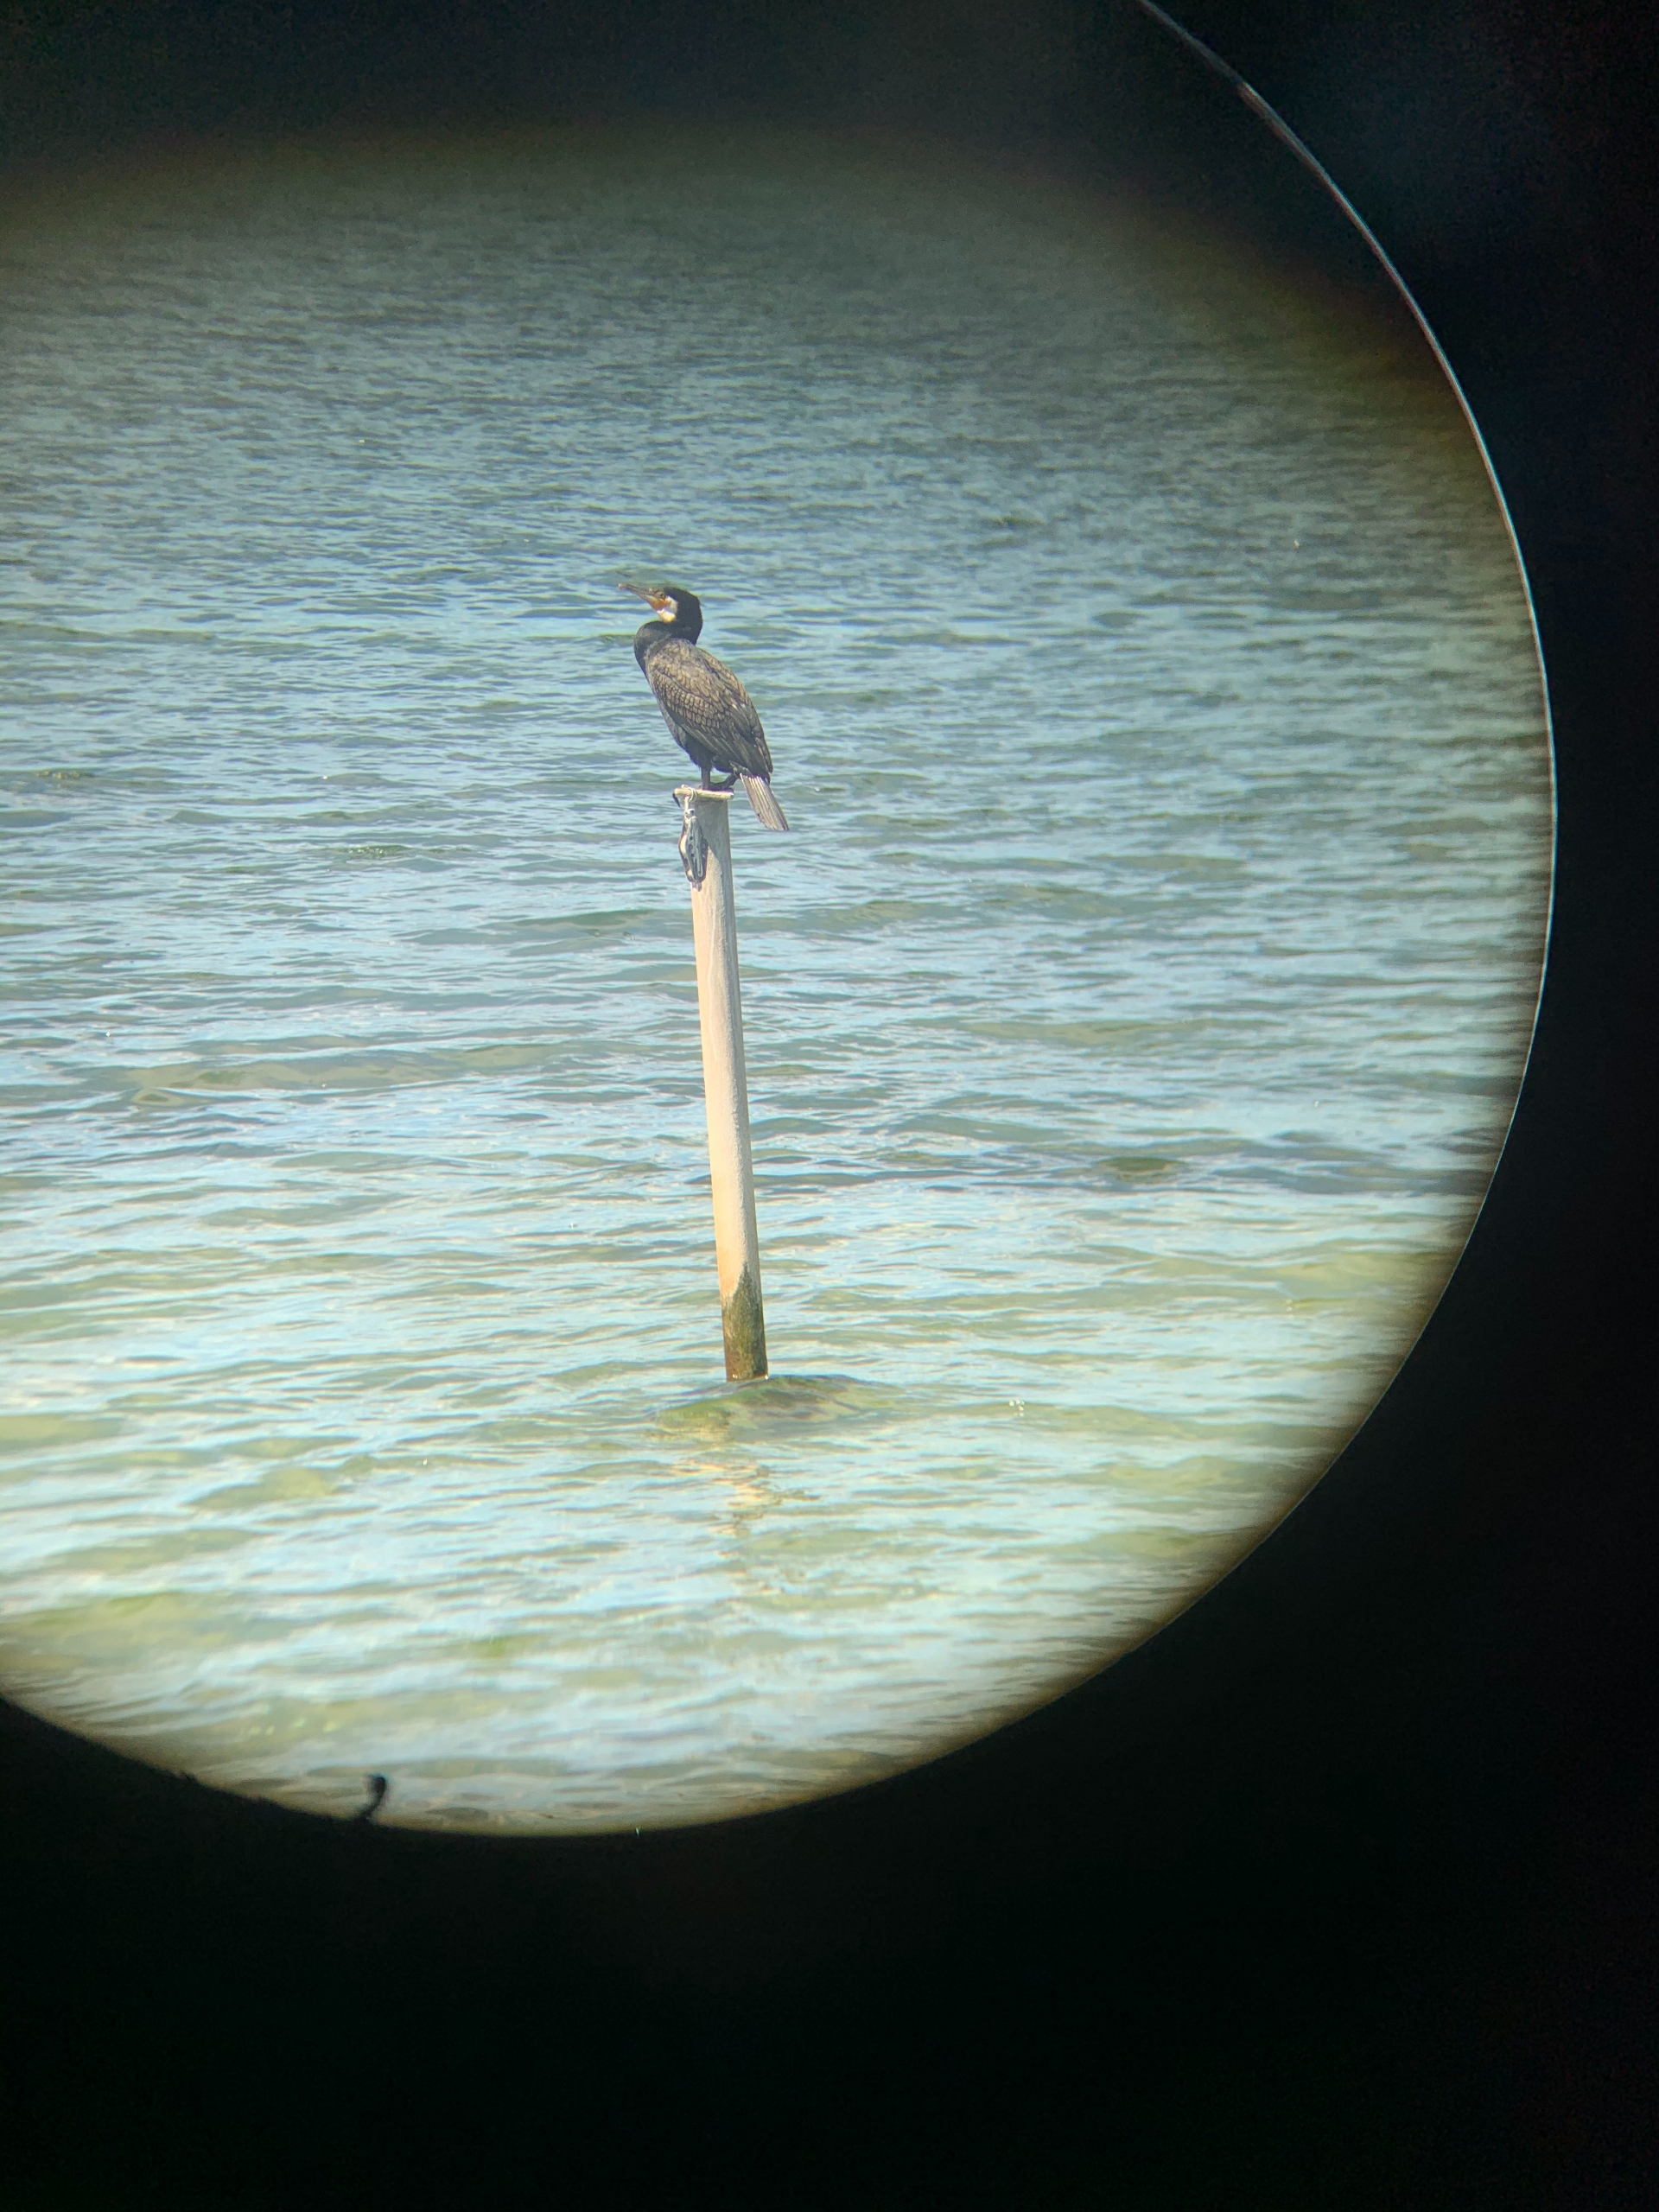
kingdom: Animalia
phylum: Chordata
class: Aves
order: Suliformes
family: Phalacrocoracidae
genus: Phalacrocorax
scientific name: Phalacrocorax carbo
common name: Skarv
